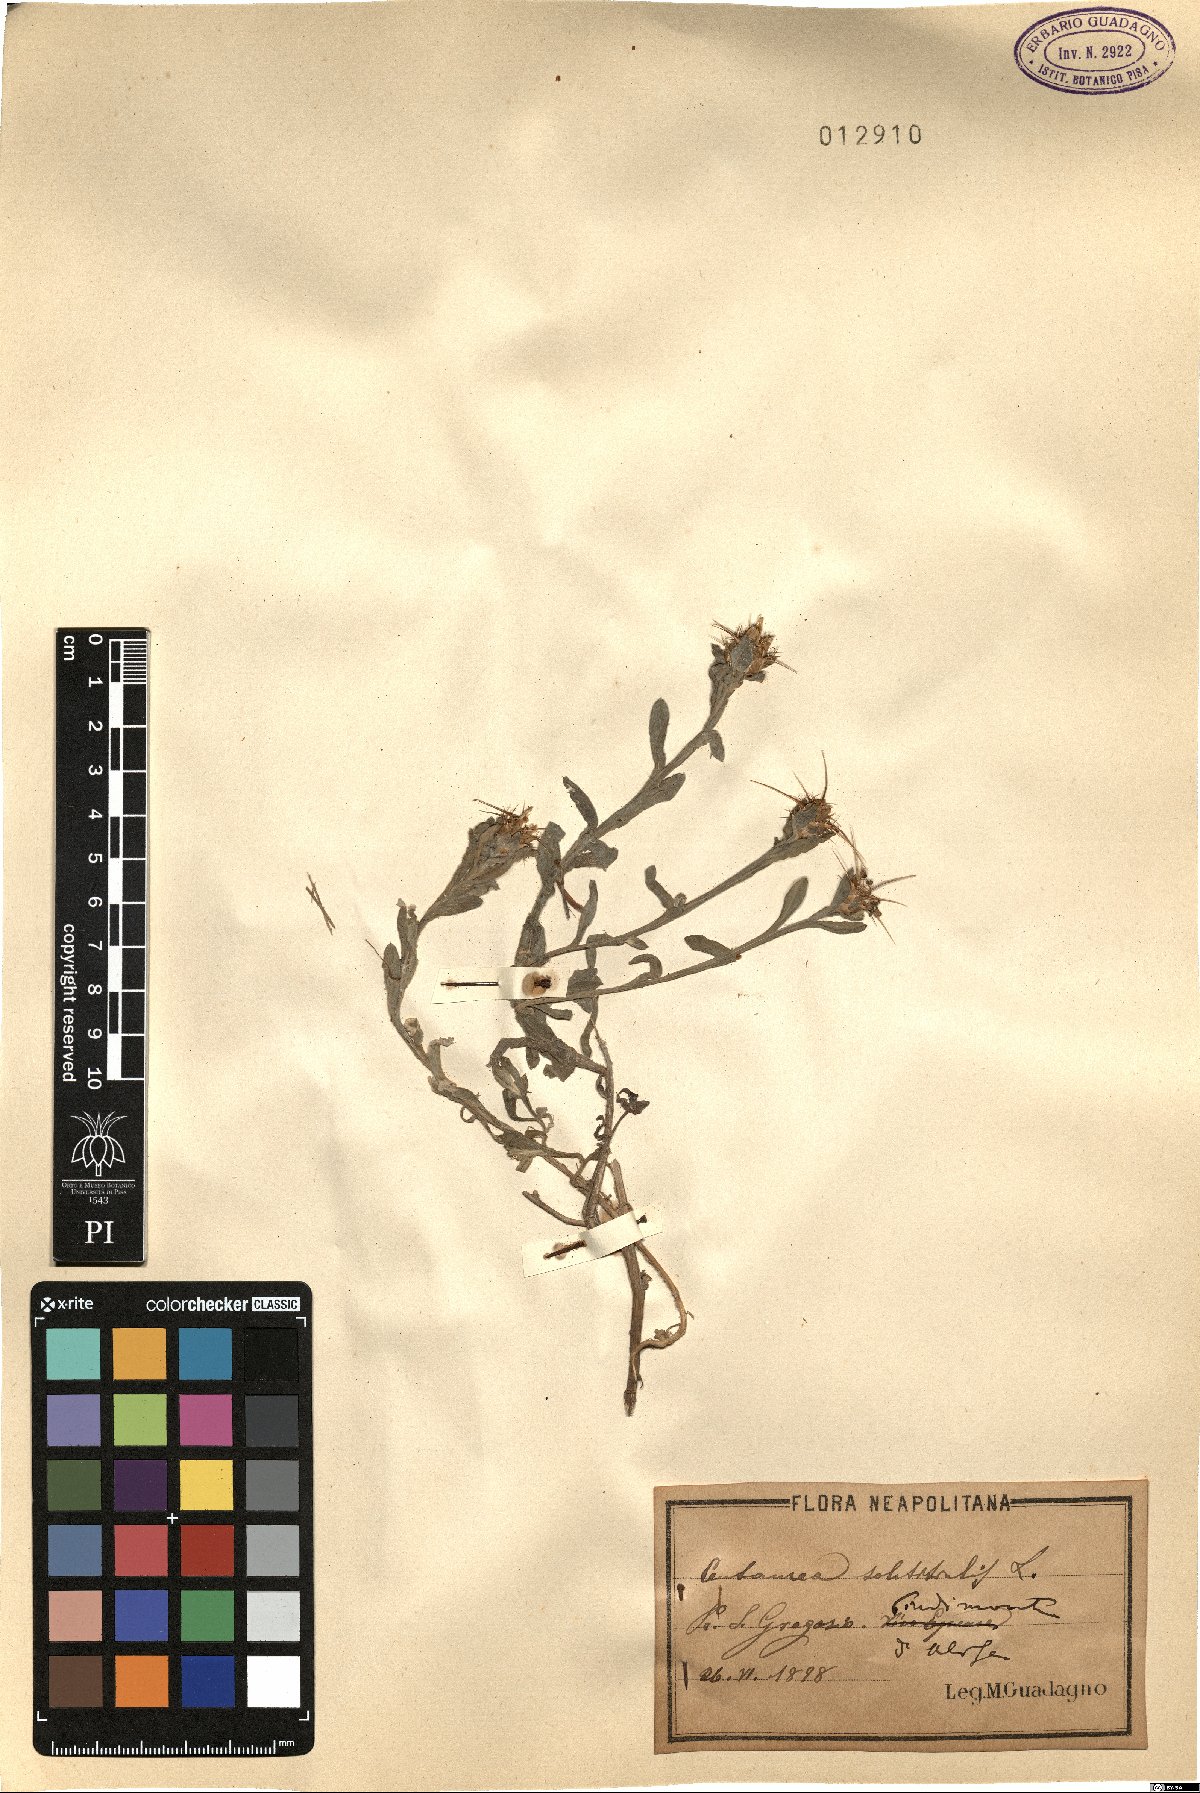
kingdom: Plantae
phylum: Tracheophyta
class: Magnoliopsida
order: Asterales
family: Asteraceae
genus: Centaurea
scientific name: Centaurea solstitialis
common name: Yellow star-thistle
